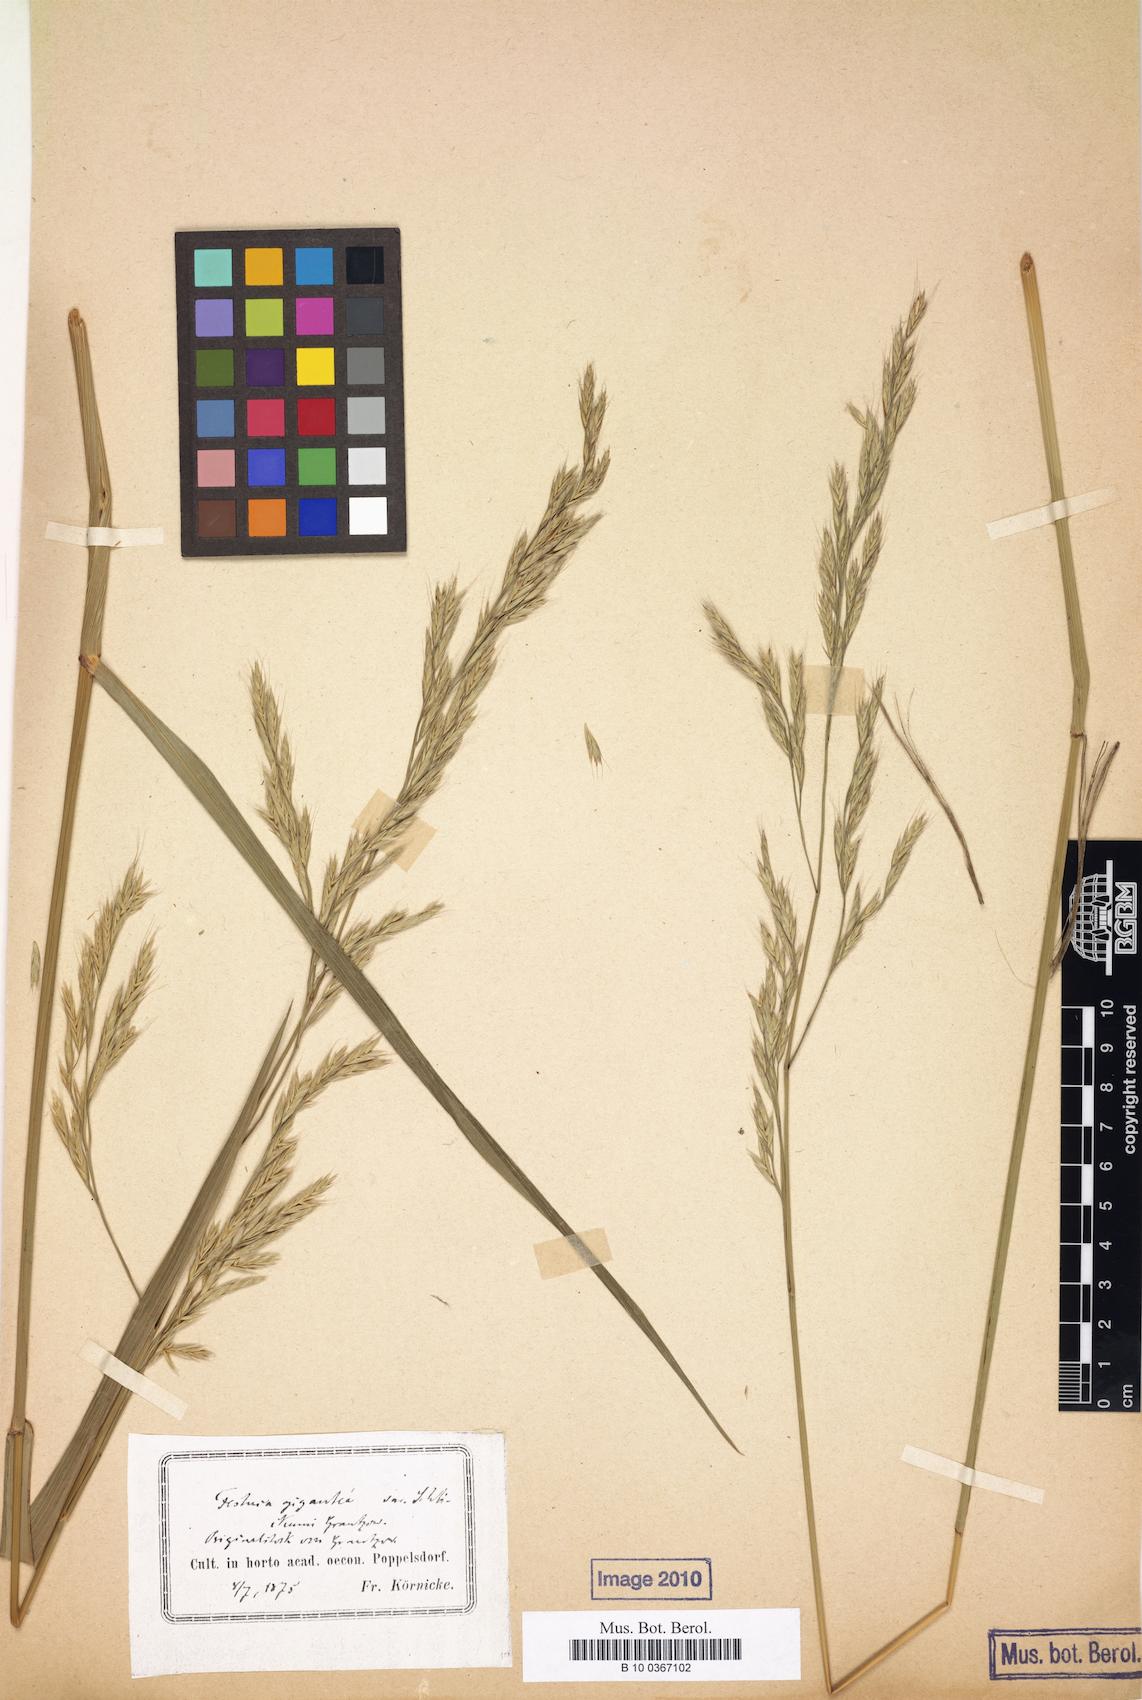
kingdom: Plantae
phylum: Tracheophyta
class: Liliopsida
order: Poales
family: Poaceae
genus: Lolium
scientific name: Lolium schlickumii
